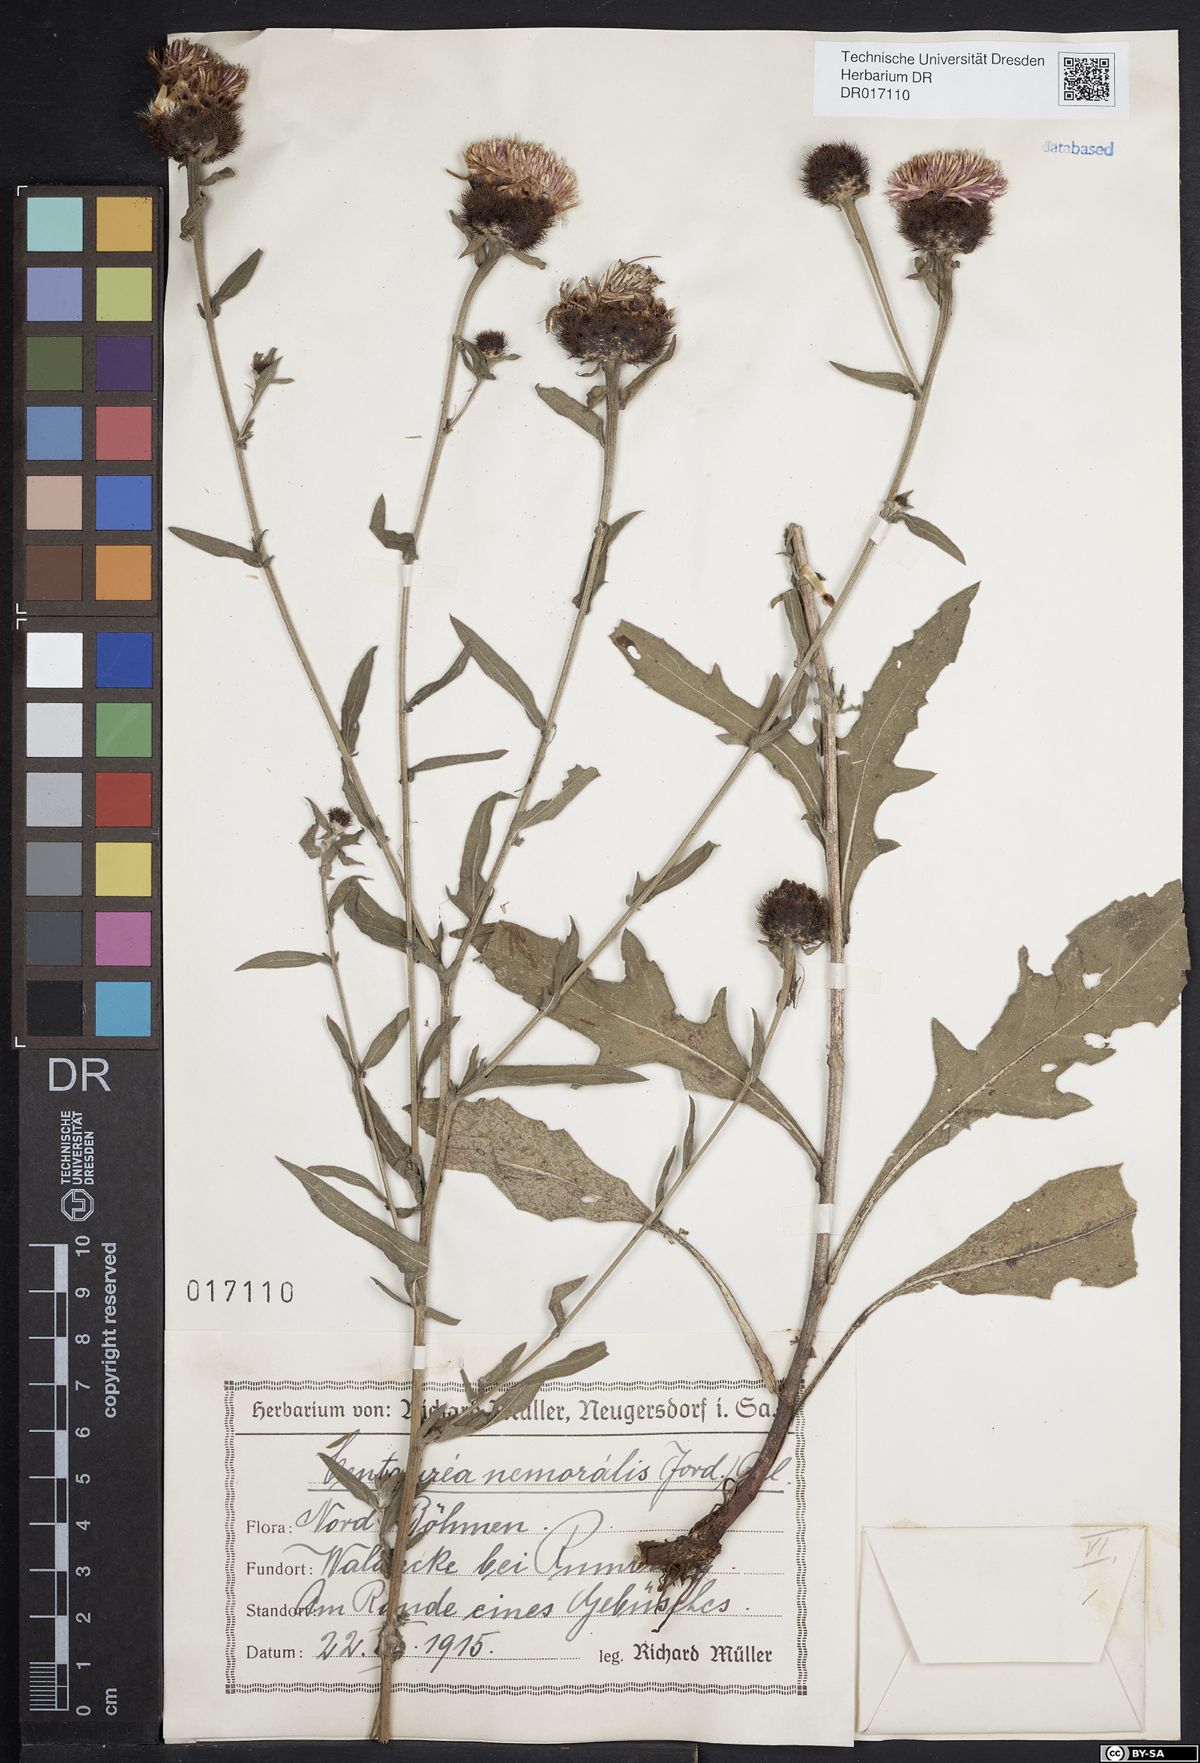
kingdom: Plantae
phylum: Tracheophyta
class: Magnoliopsida
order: Asterales
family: Asteraceae
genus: Centaurea
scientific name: Centaurea nigra
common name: Lesser knapweed
